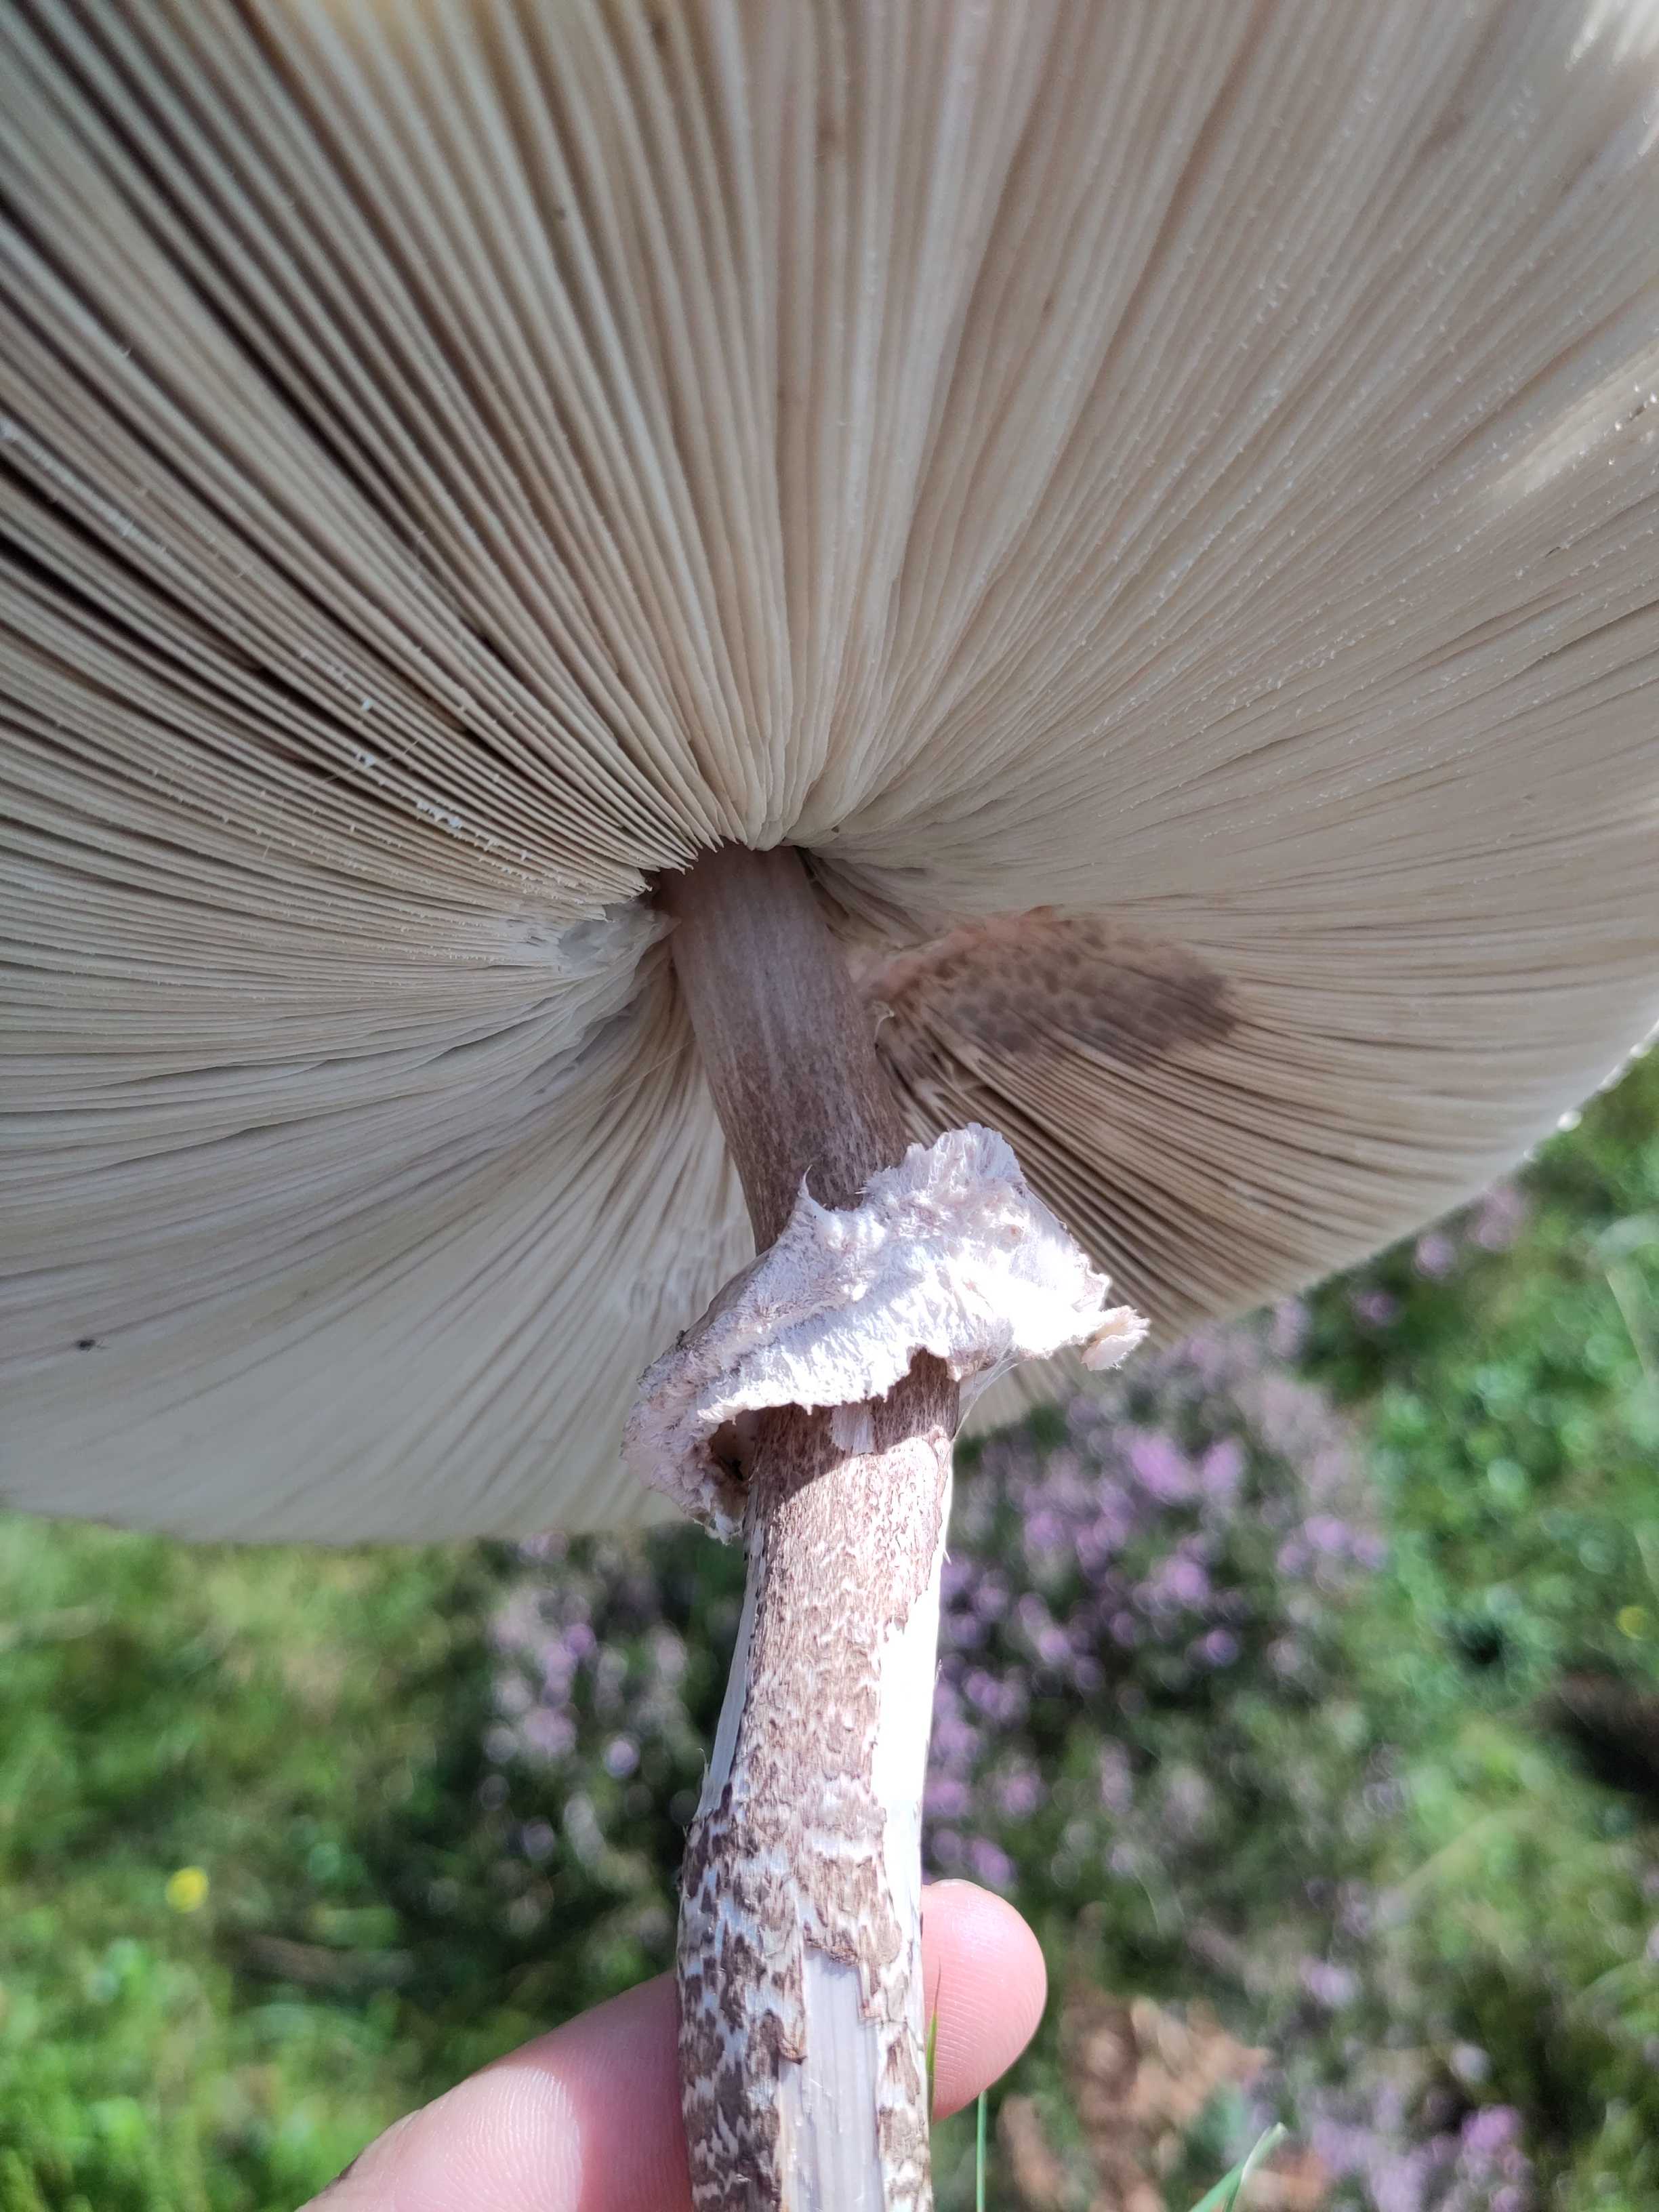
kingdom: Fungi
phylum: Basidiomycota
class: Agaricomycetes
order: Agaricales
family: Agaricaceae
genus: Macrolepiota
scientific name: Macrolepiota procera
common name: stor kæmpeparasolhat
